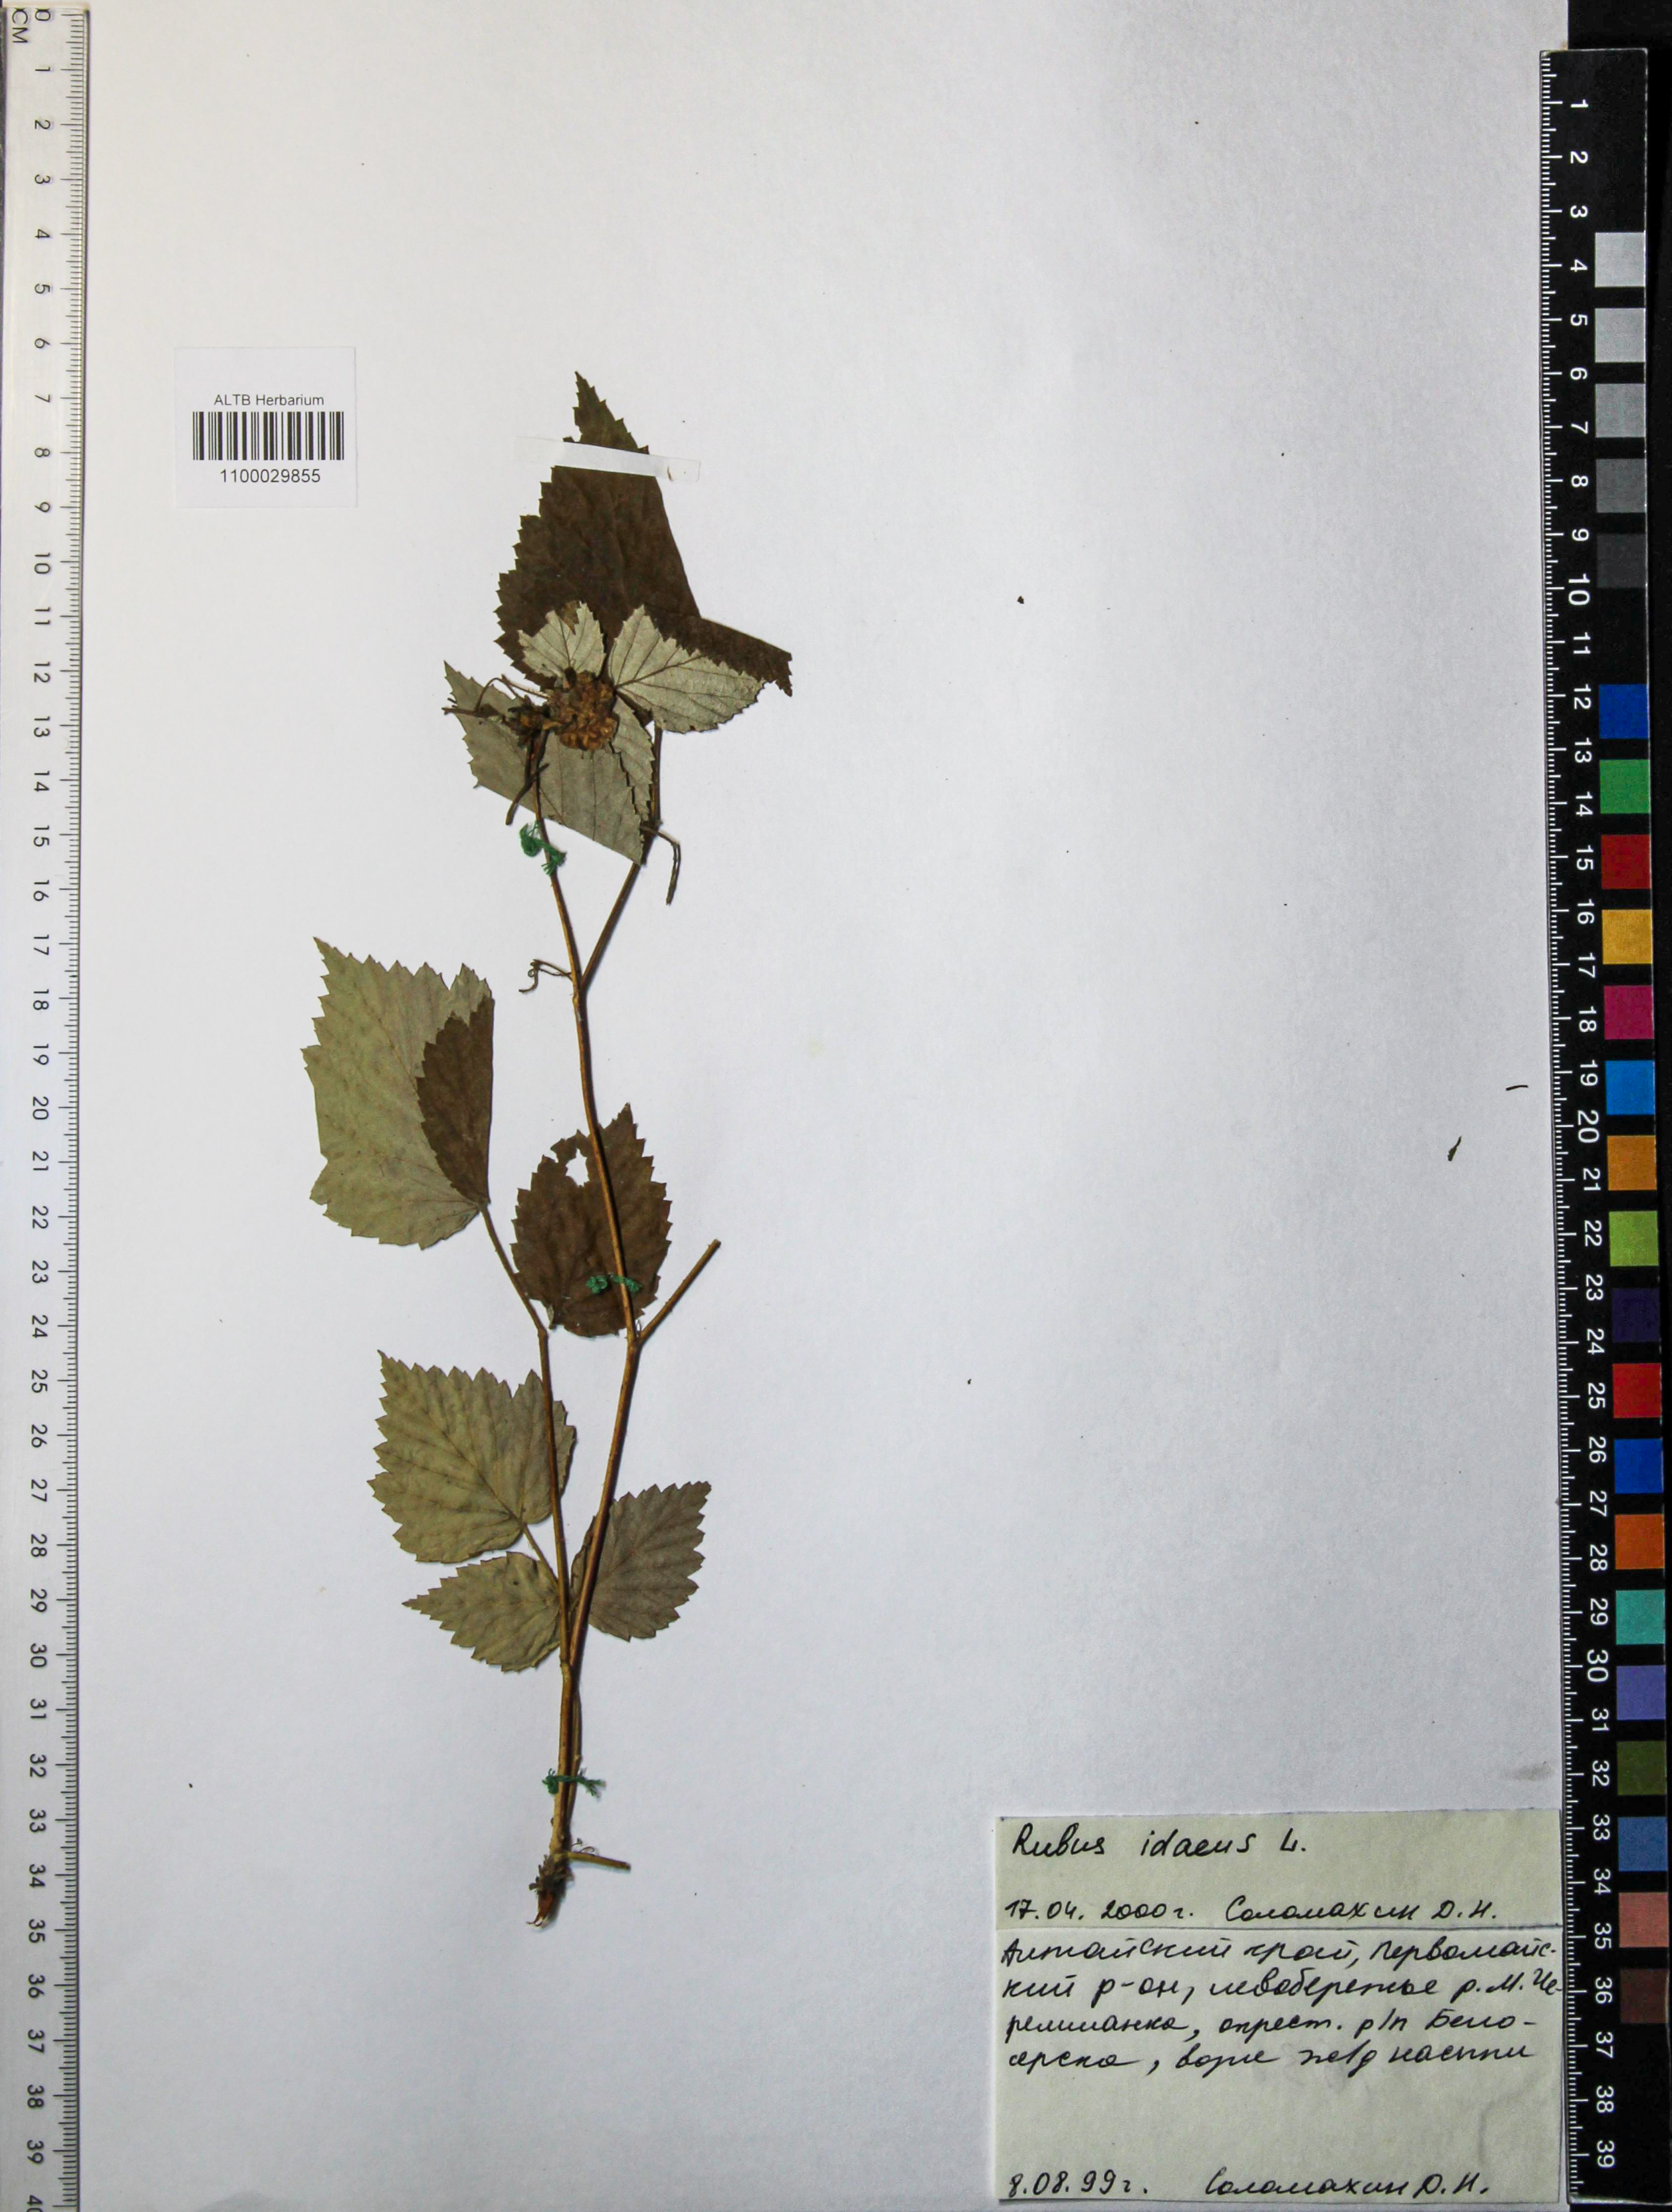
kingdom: Plantae
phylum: Tracheophyta
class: Magnoliopsida
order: Rosales
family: Rosaceae
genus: Rubus
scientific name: Rubus idaeus
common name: Raspberry
